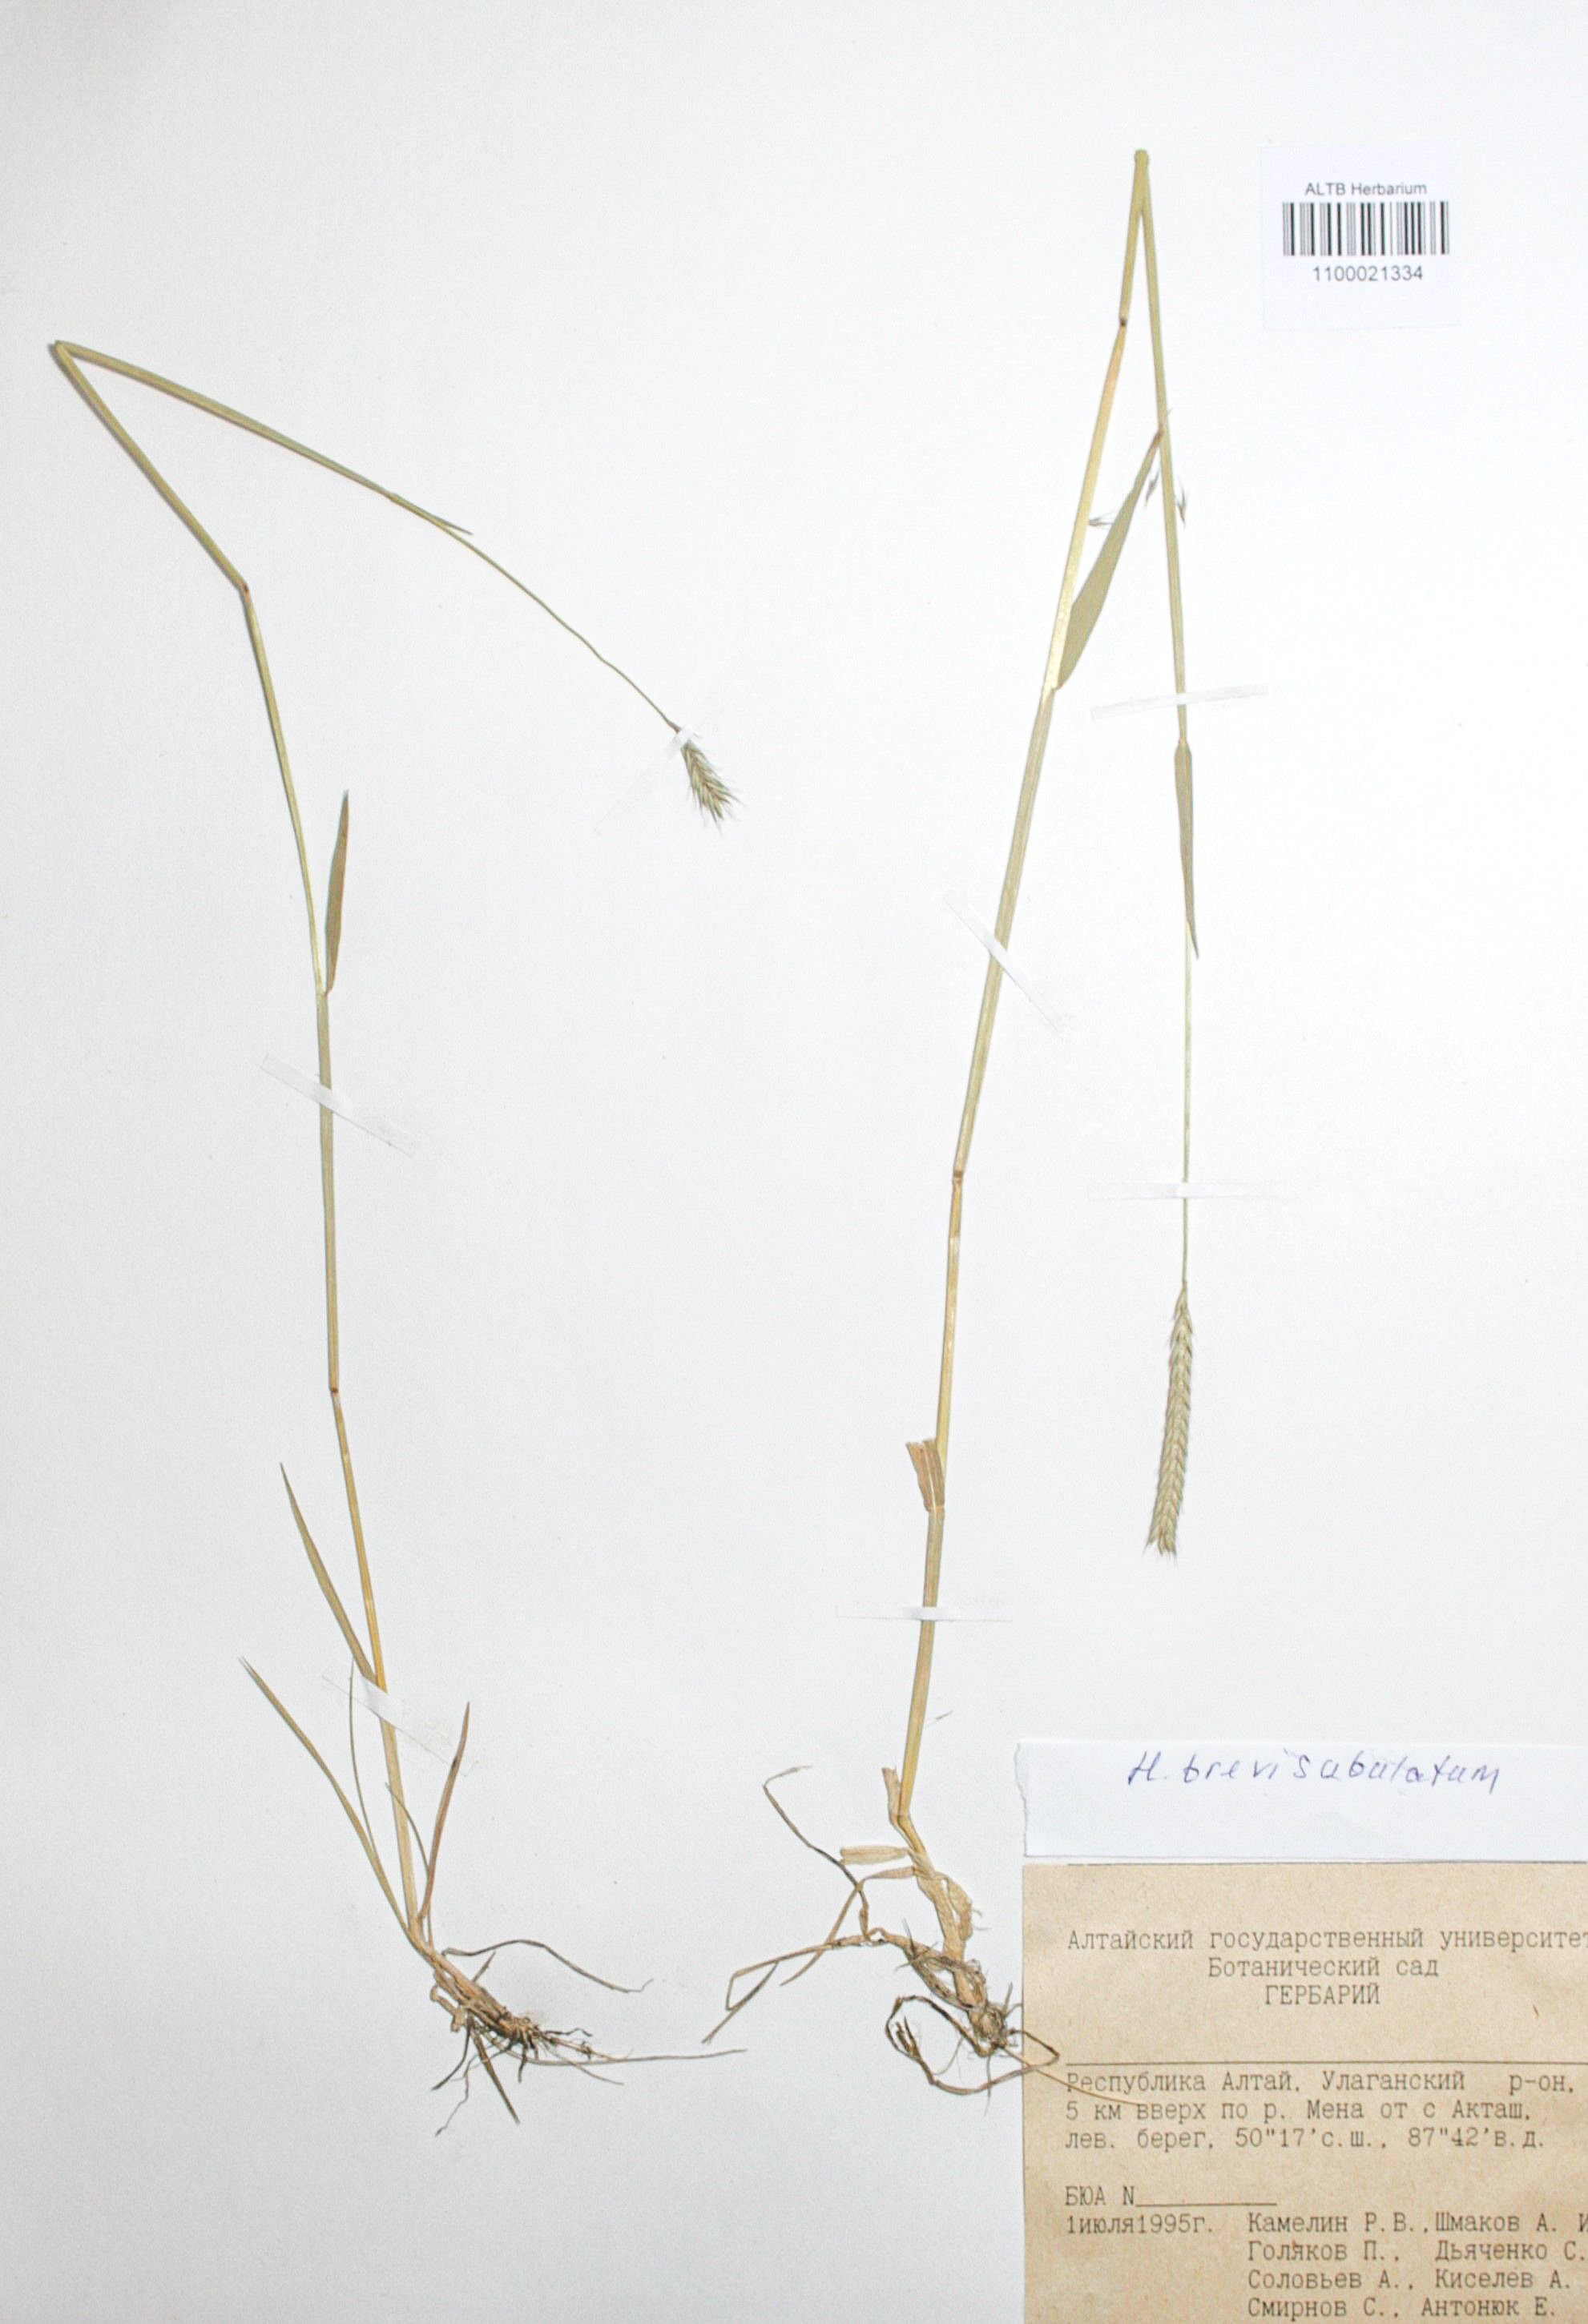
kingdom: Plantae
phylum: Tracheophyta
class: Liliopsida
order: Poales
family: Poaceae
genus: Hordeum
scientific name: Hordeum brevisubulatum
